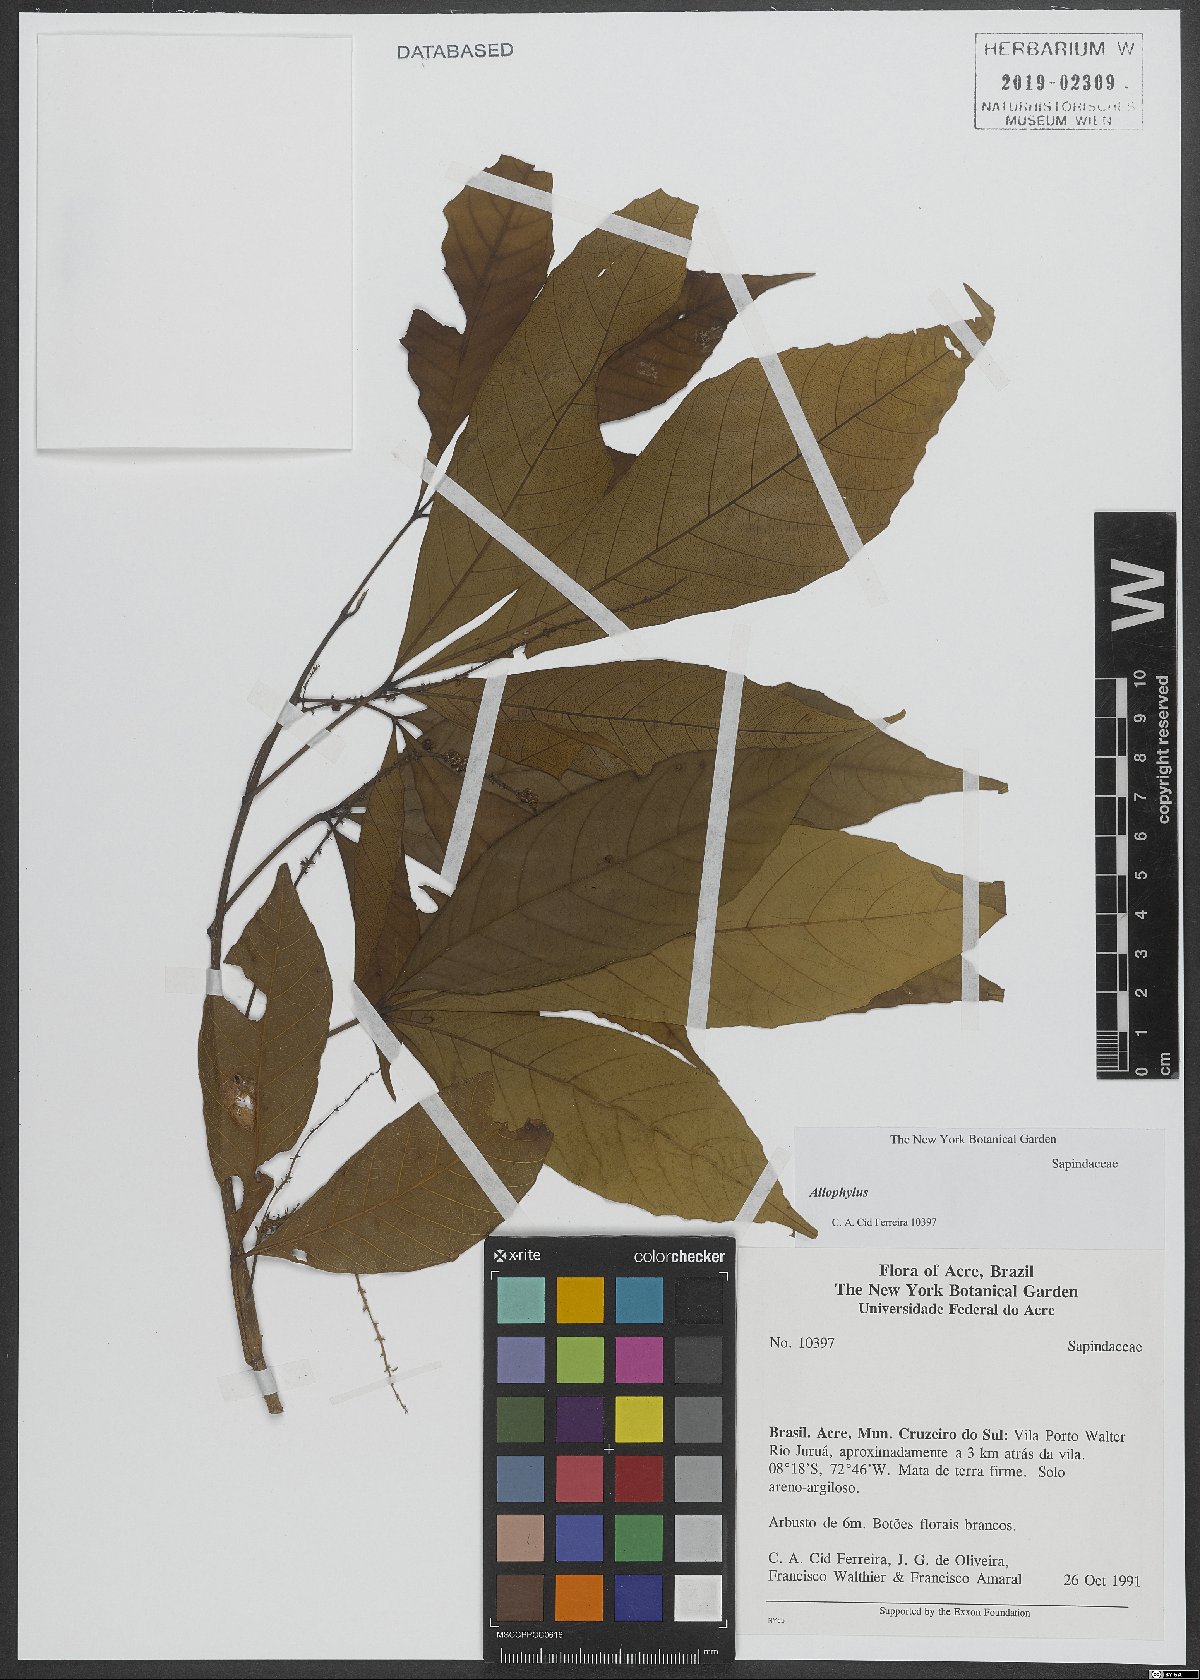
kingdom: Plantae
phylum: Tracheophyta
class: Magnoliopsida
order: Sapindales
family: Sapindaceae
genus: Allophylus
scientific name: Allophylus
